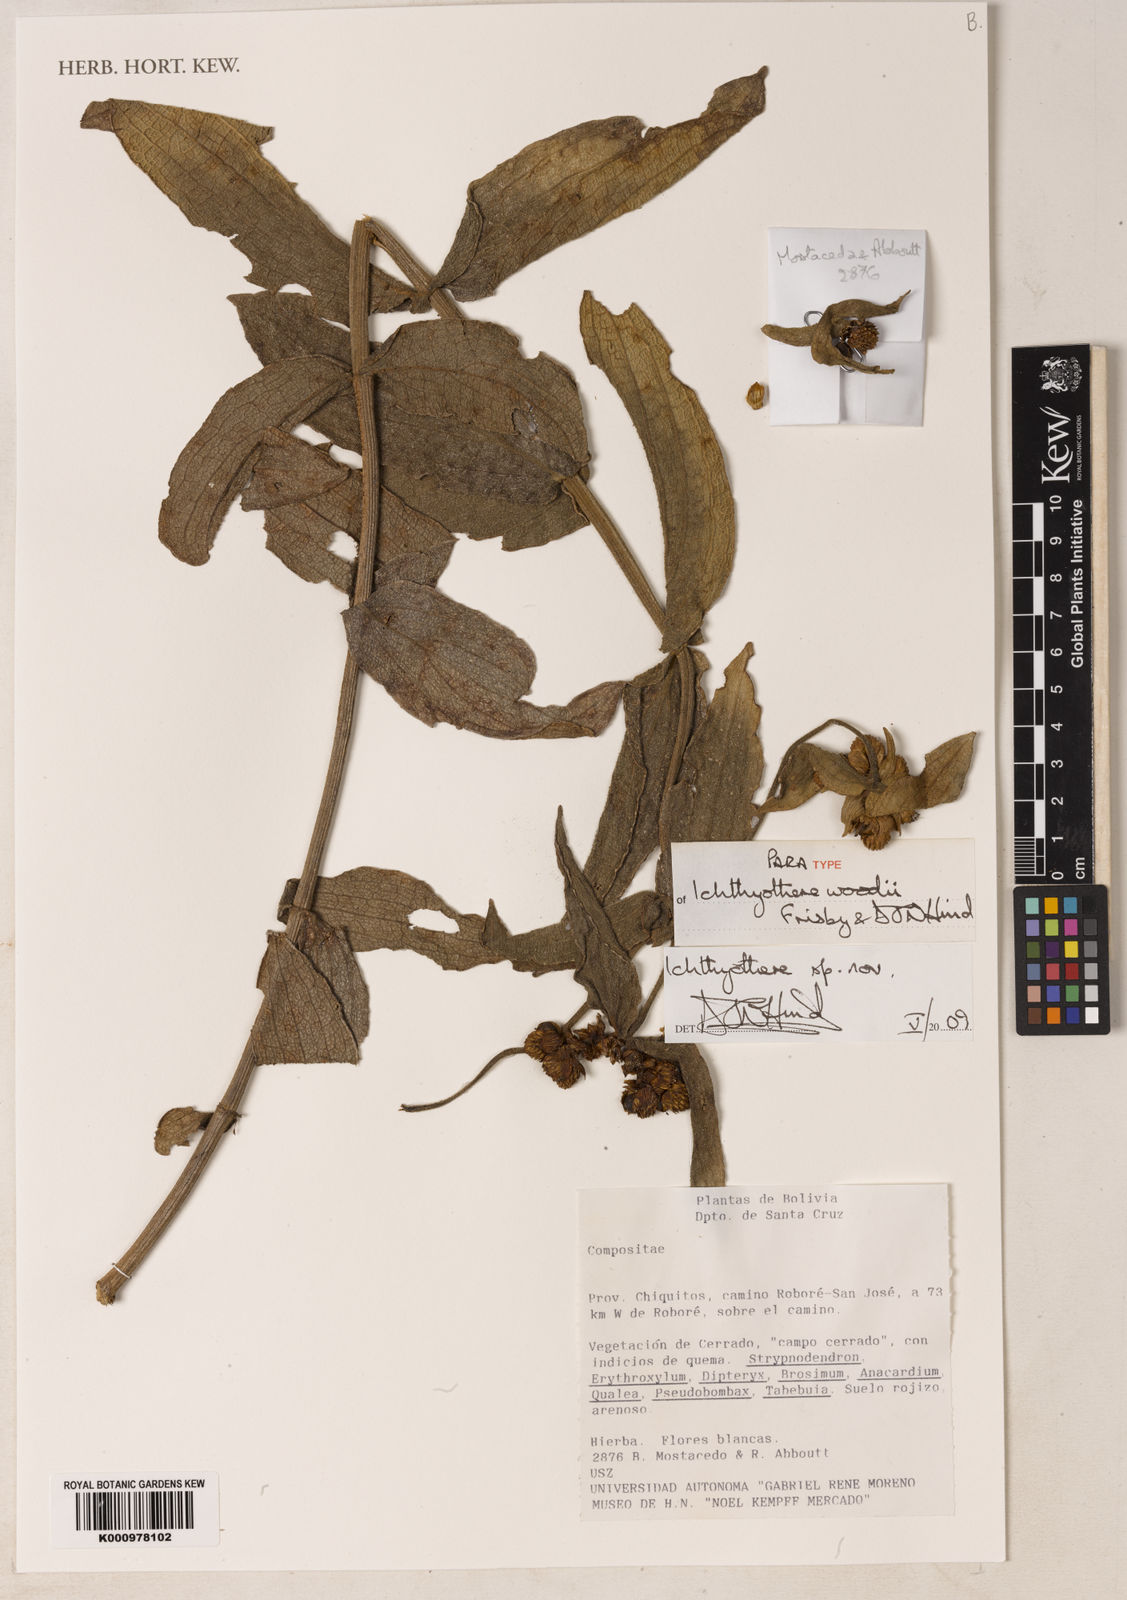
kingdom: Plantae
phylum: Tracheophyta
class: Magnoliopsida
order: Asterales
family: Asteraceae
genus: Ichthyothere
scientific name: Ichthyothere woodii
